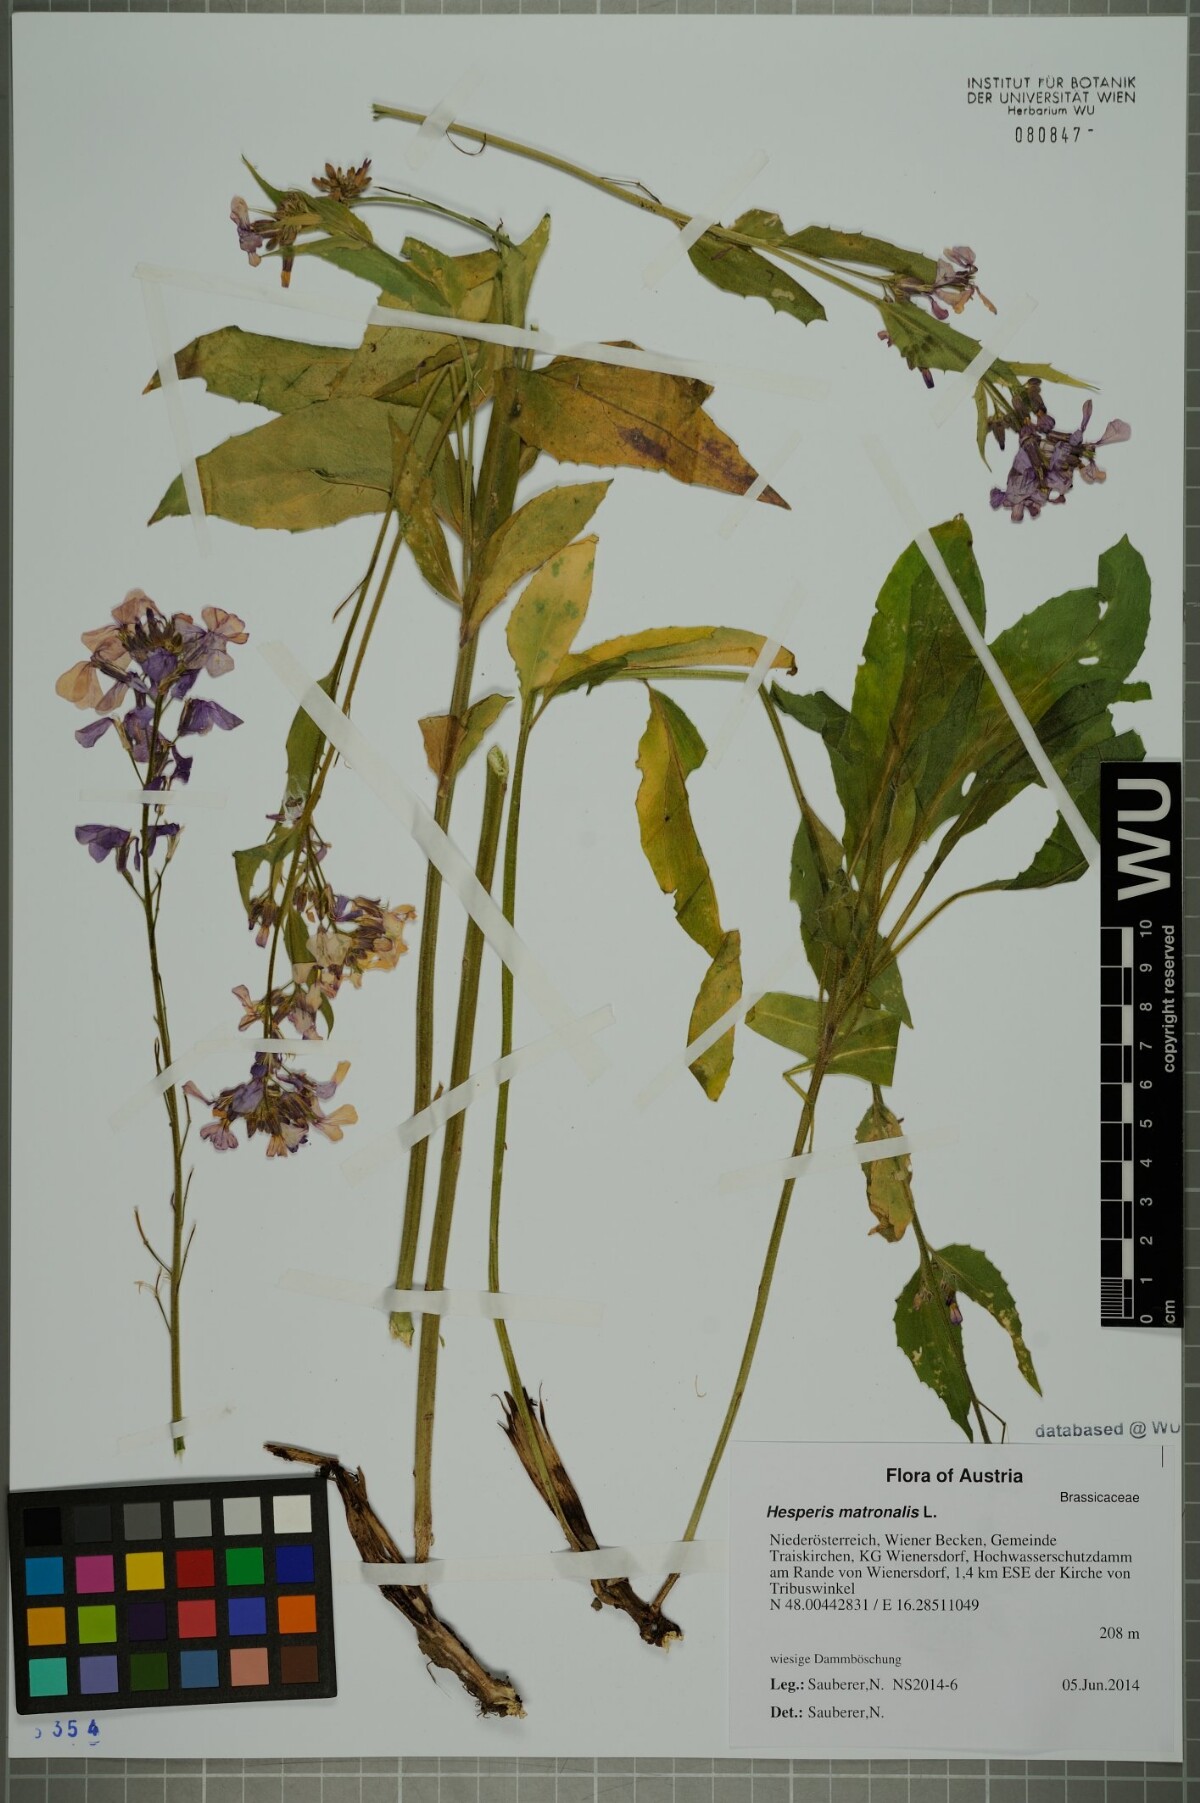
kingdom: Plantae
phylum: Tracheophyta
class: Magnoliopsida
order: Brassicales
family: Brassicaceae
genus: Hesperis
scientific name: Hesperis matronalis
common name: Dame's-violet
